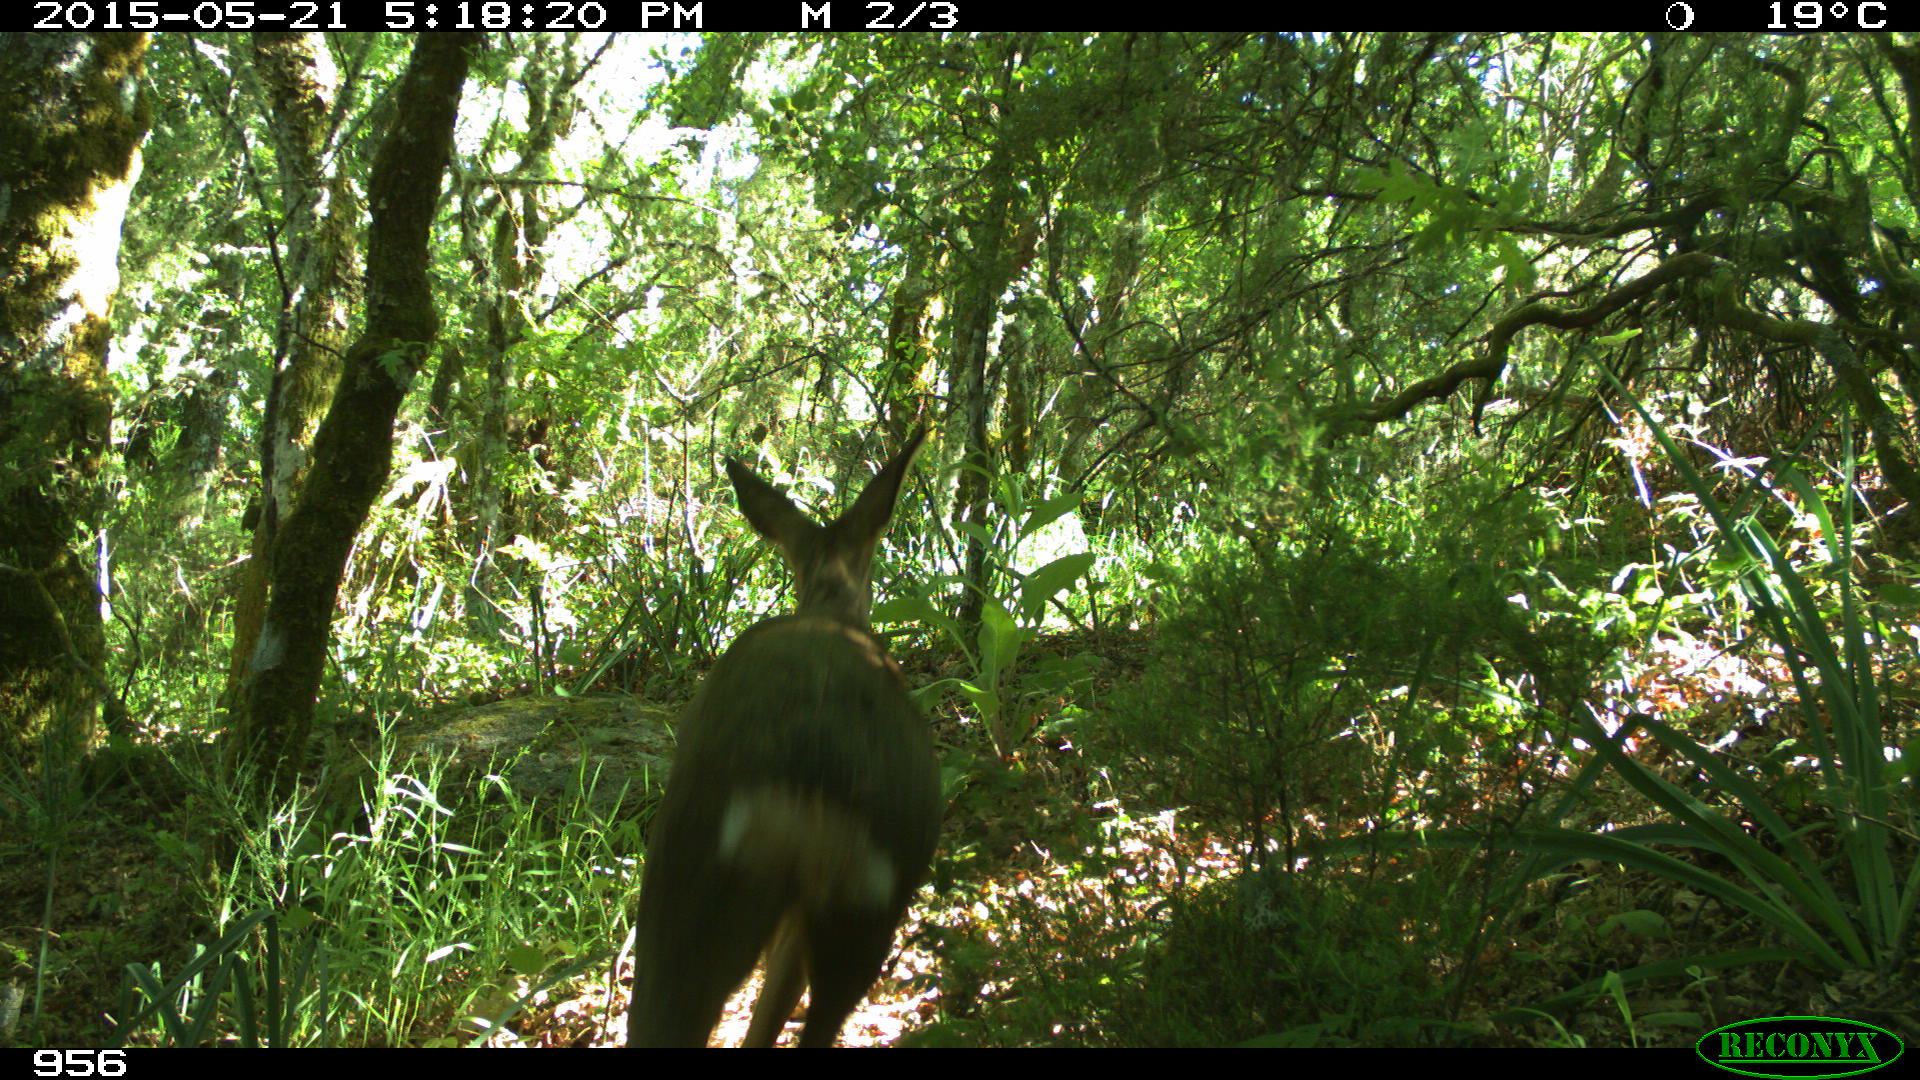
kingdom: Animalia
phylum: Chordata
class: Mammalia
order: Artiodactyla
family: Cervidae
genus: Capreolus
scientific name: Capreolus capreolus
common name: Western roe deer
